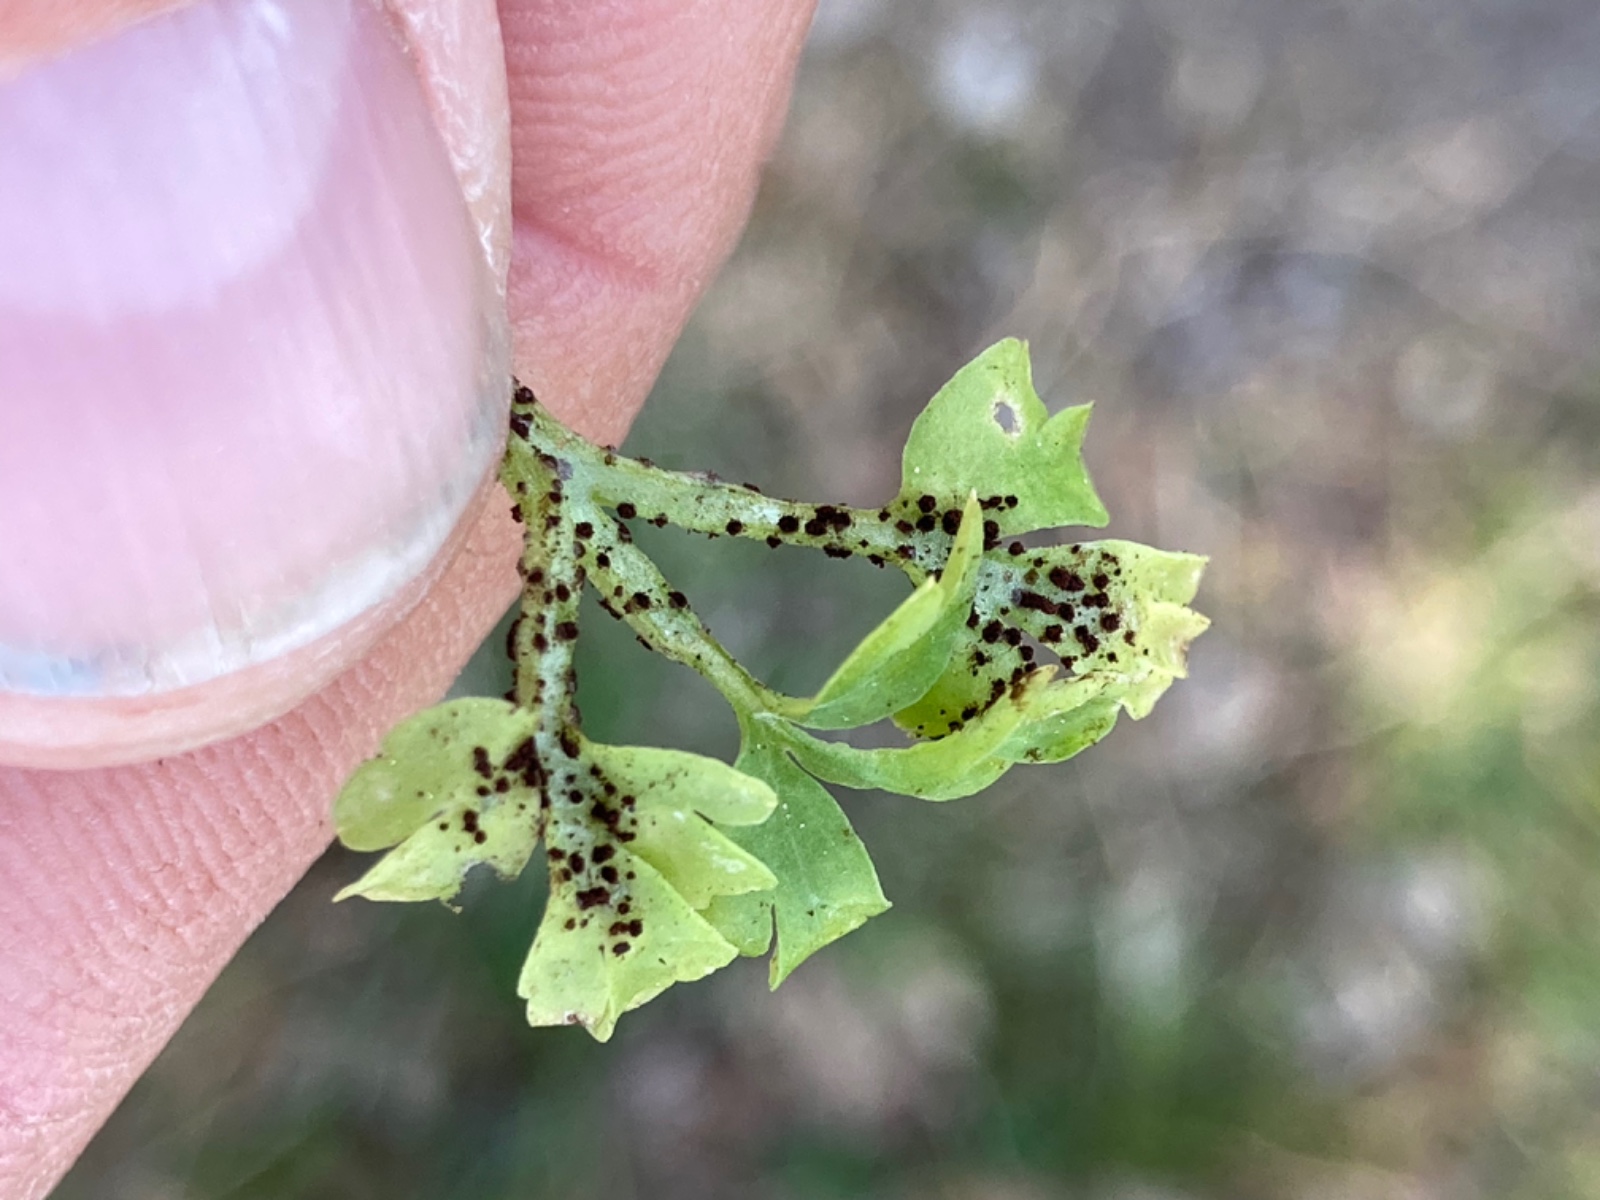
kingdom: Fungi
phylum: Basidiomycota
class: Pucciniomycetes
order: Pucciniales
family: Pucciniaceae
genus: Puccinia
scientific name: Puccinia adoxae
